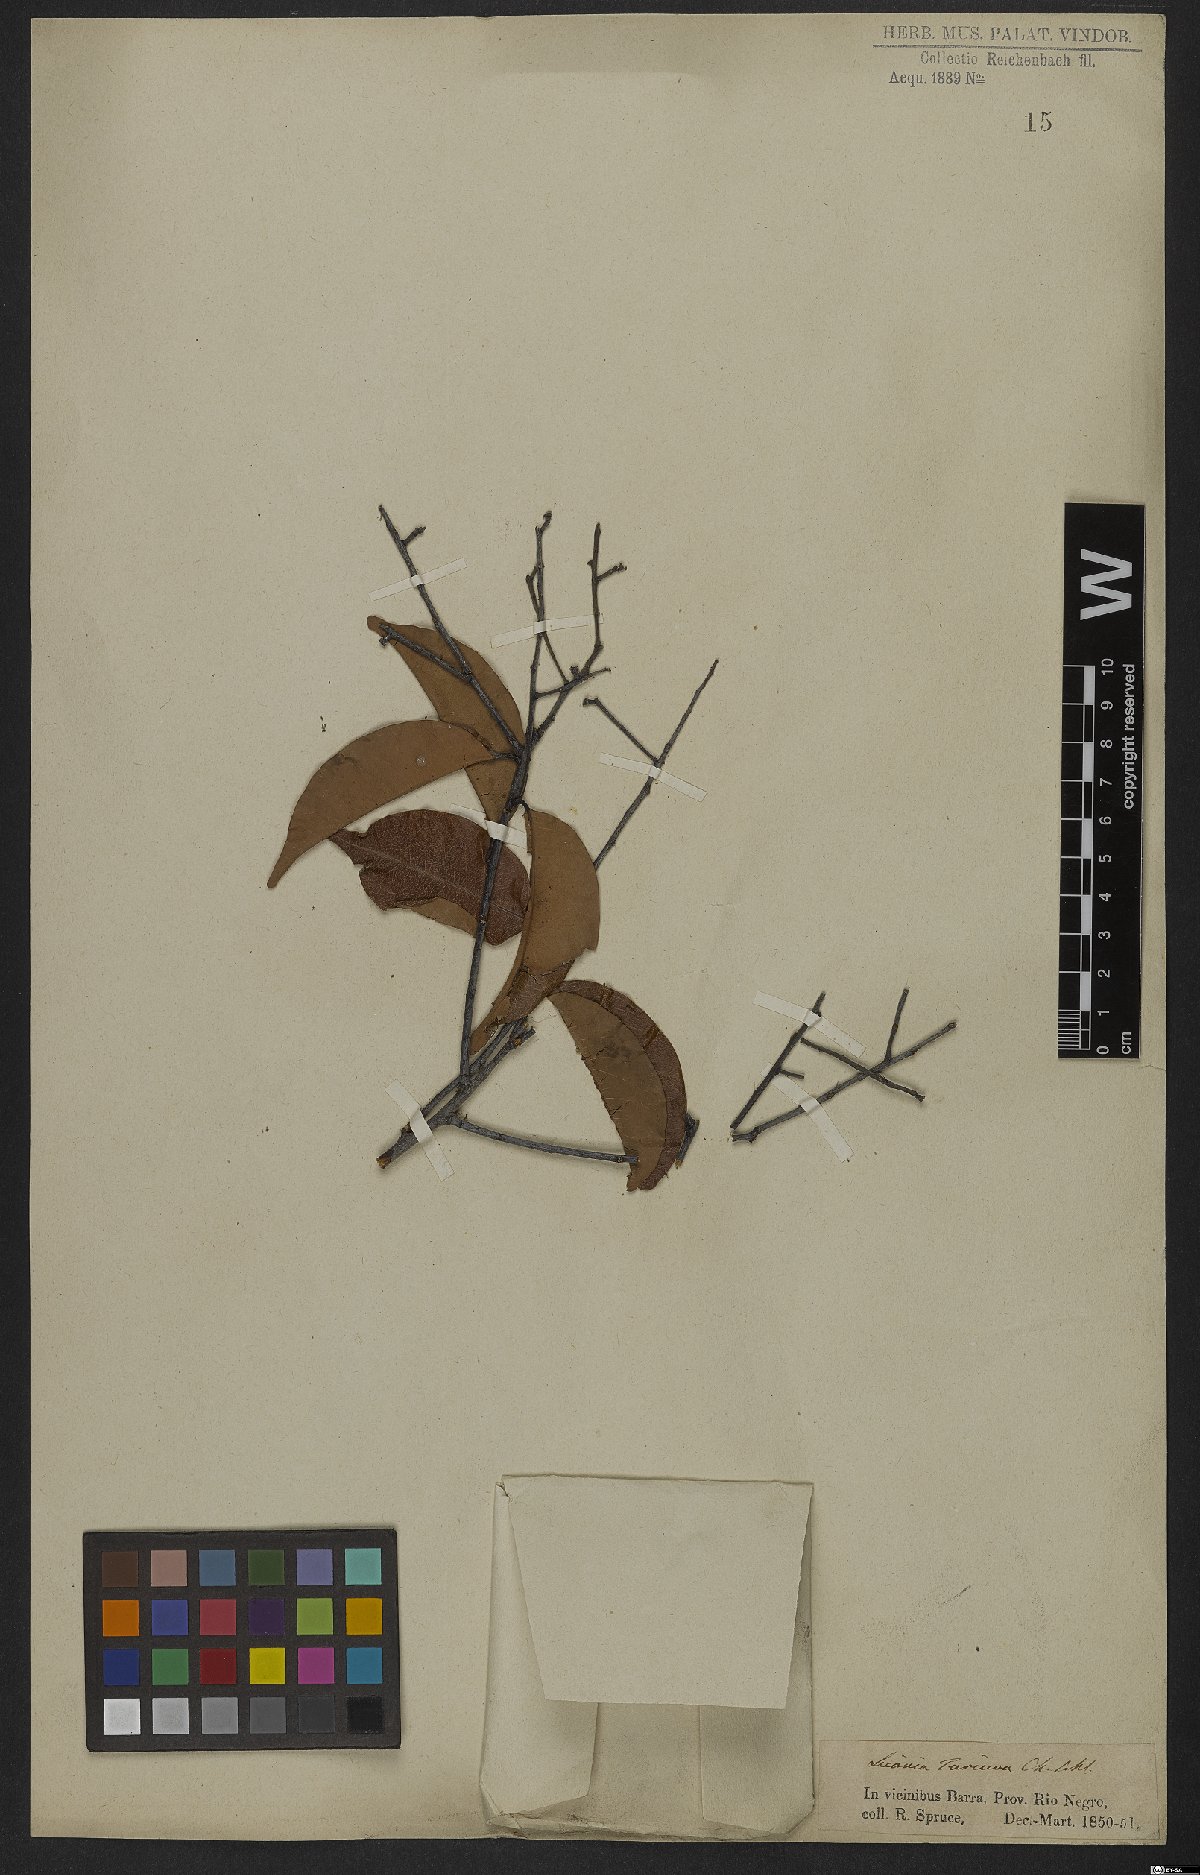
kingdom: Plantae
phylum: Tracheophyta
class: Magnoliopsida
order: Malpighiales
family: Chrysobalanaceae
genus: Leptobalanus
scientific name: Leptobalanus octandrus
